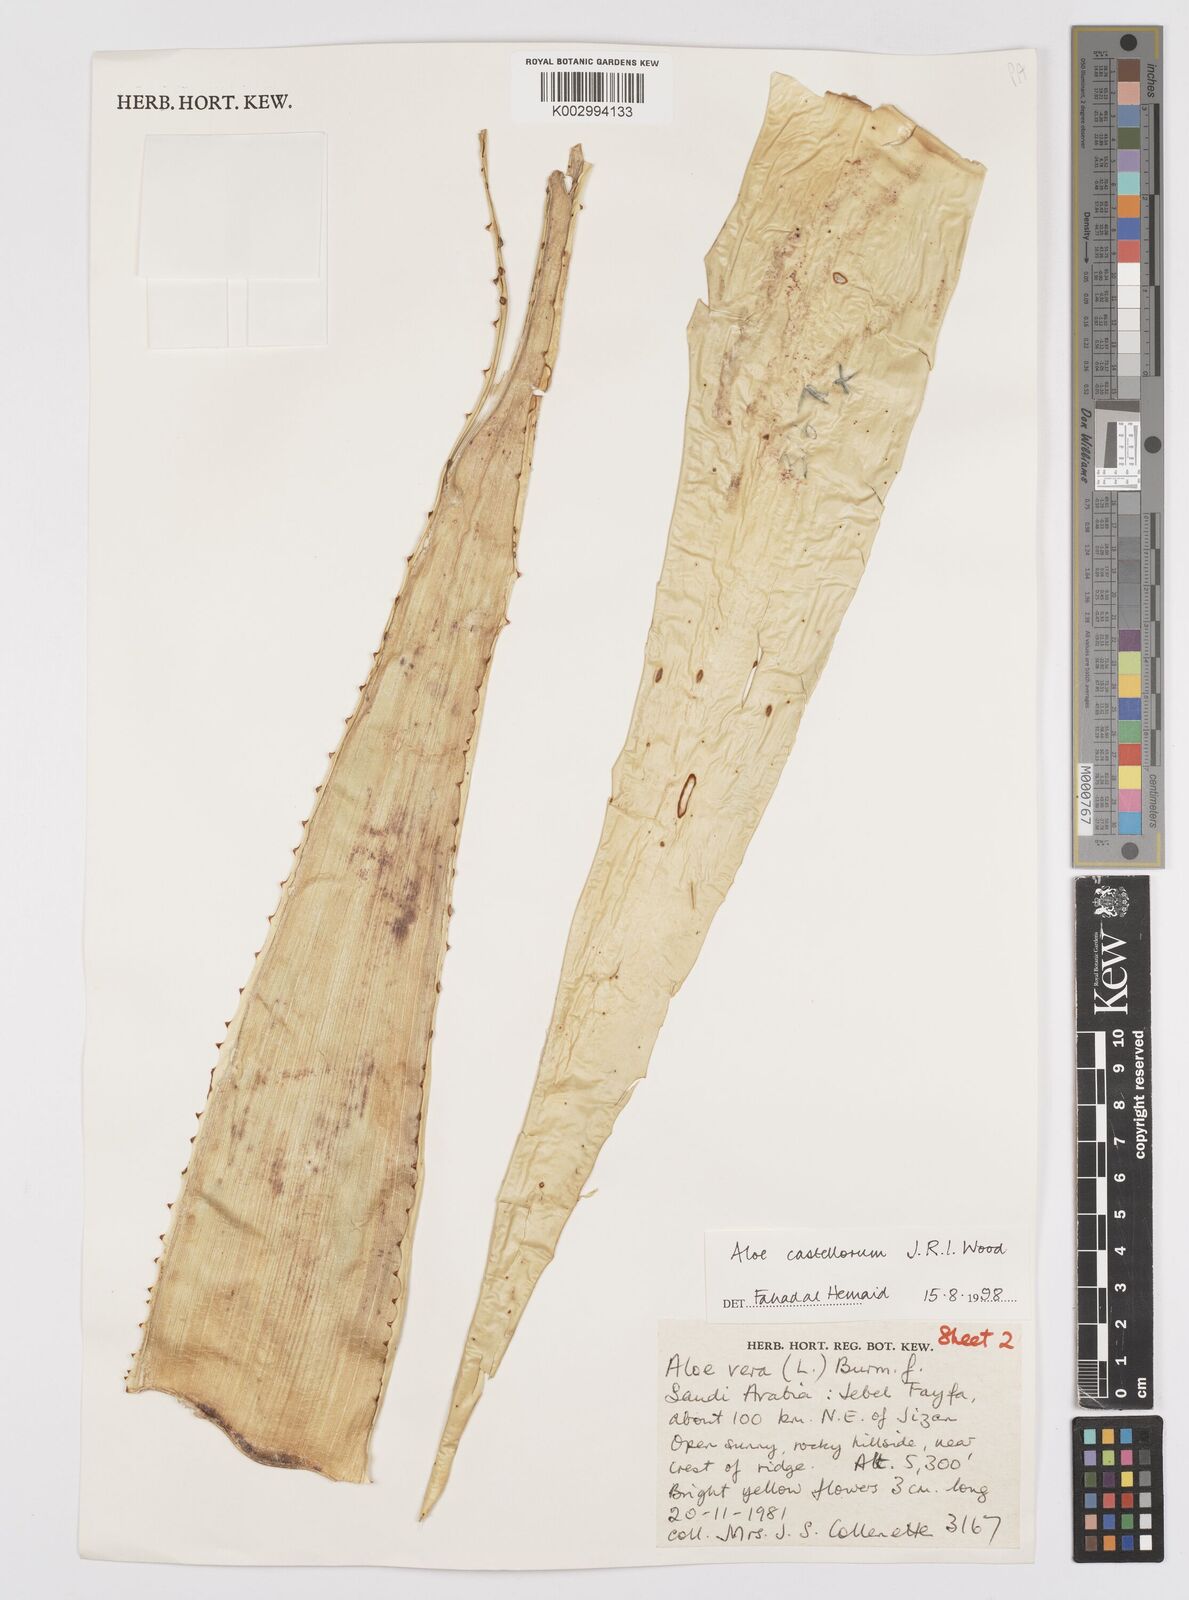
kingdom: Plantae
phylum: Tracheophyta
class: Liliopsida
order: Asparagales
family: Asphodelaceae
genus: Aloe
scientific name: Aloe castellorum
